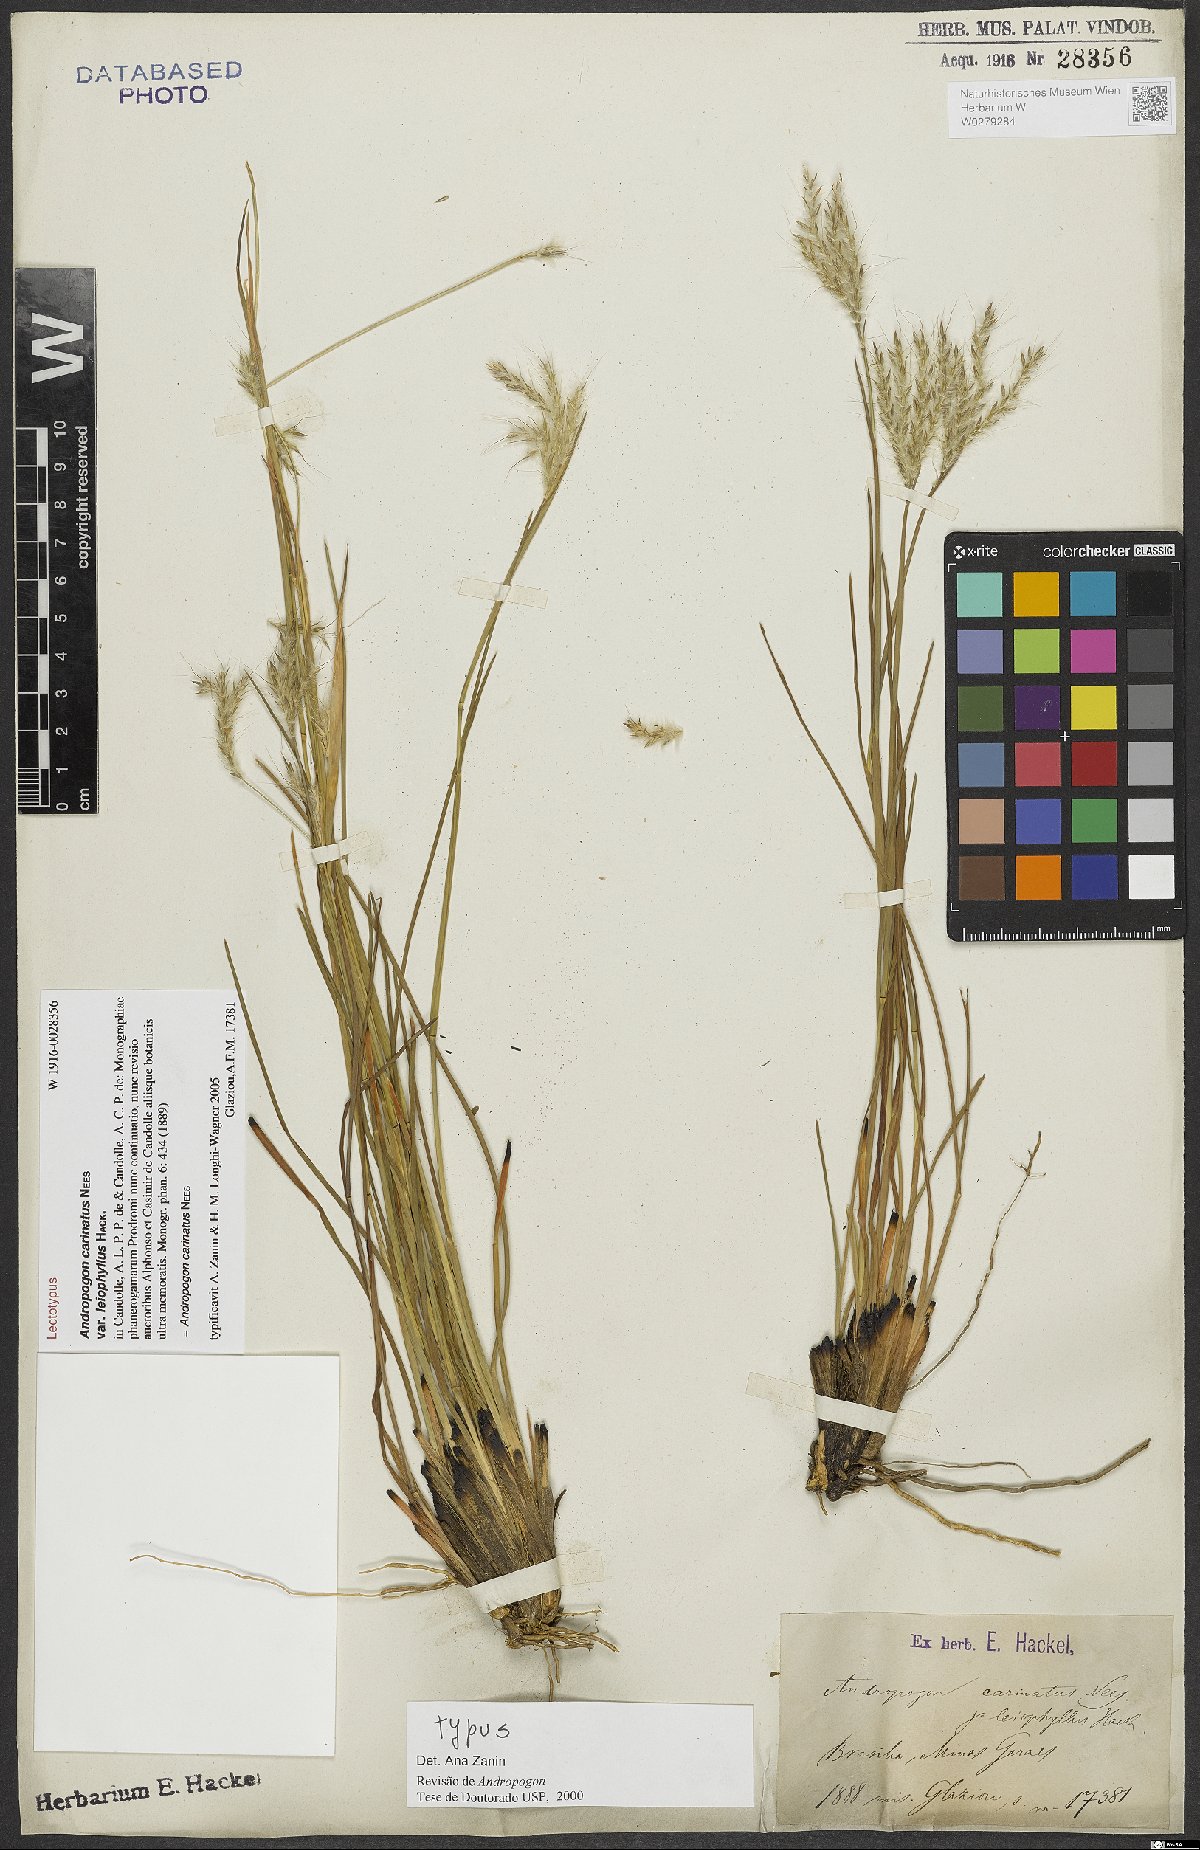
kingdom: Plantae
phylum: Tracheophyta
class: Liliopsida
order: Poales
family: Poaceae
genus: Andropogon
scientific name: Andropogon carinatus
